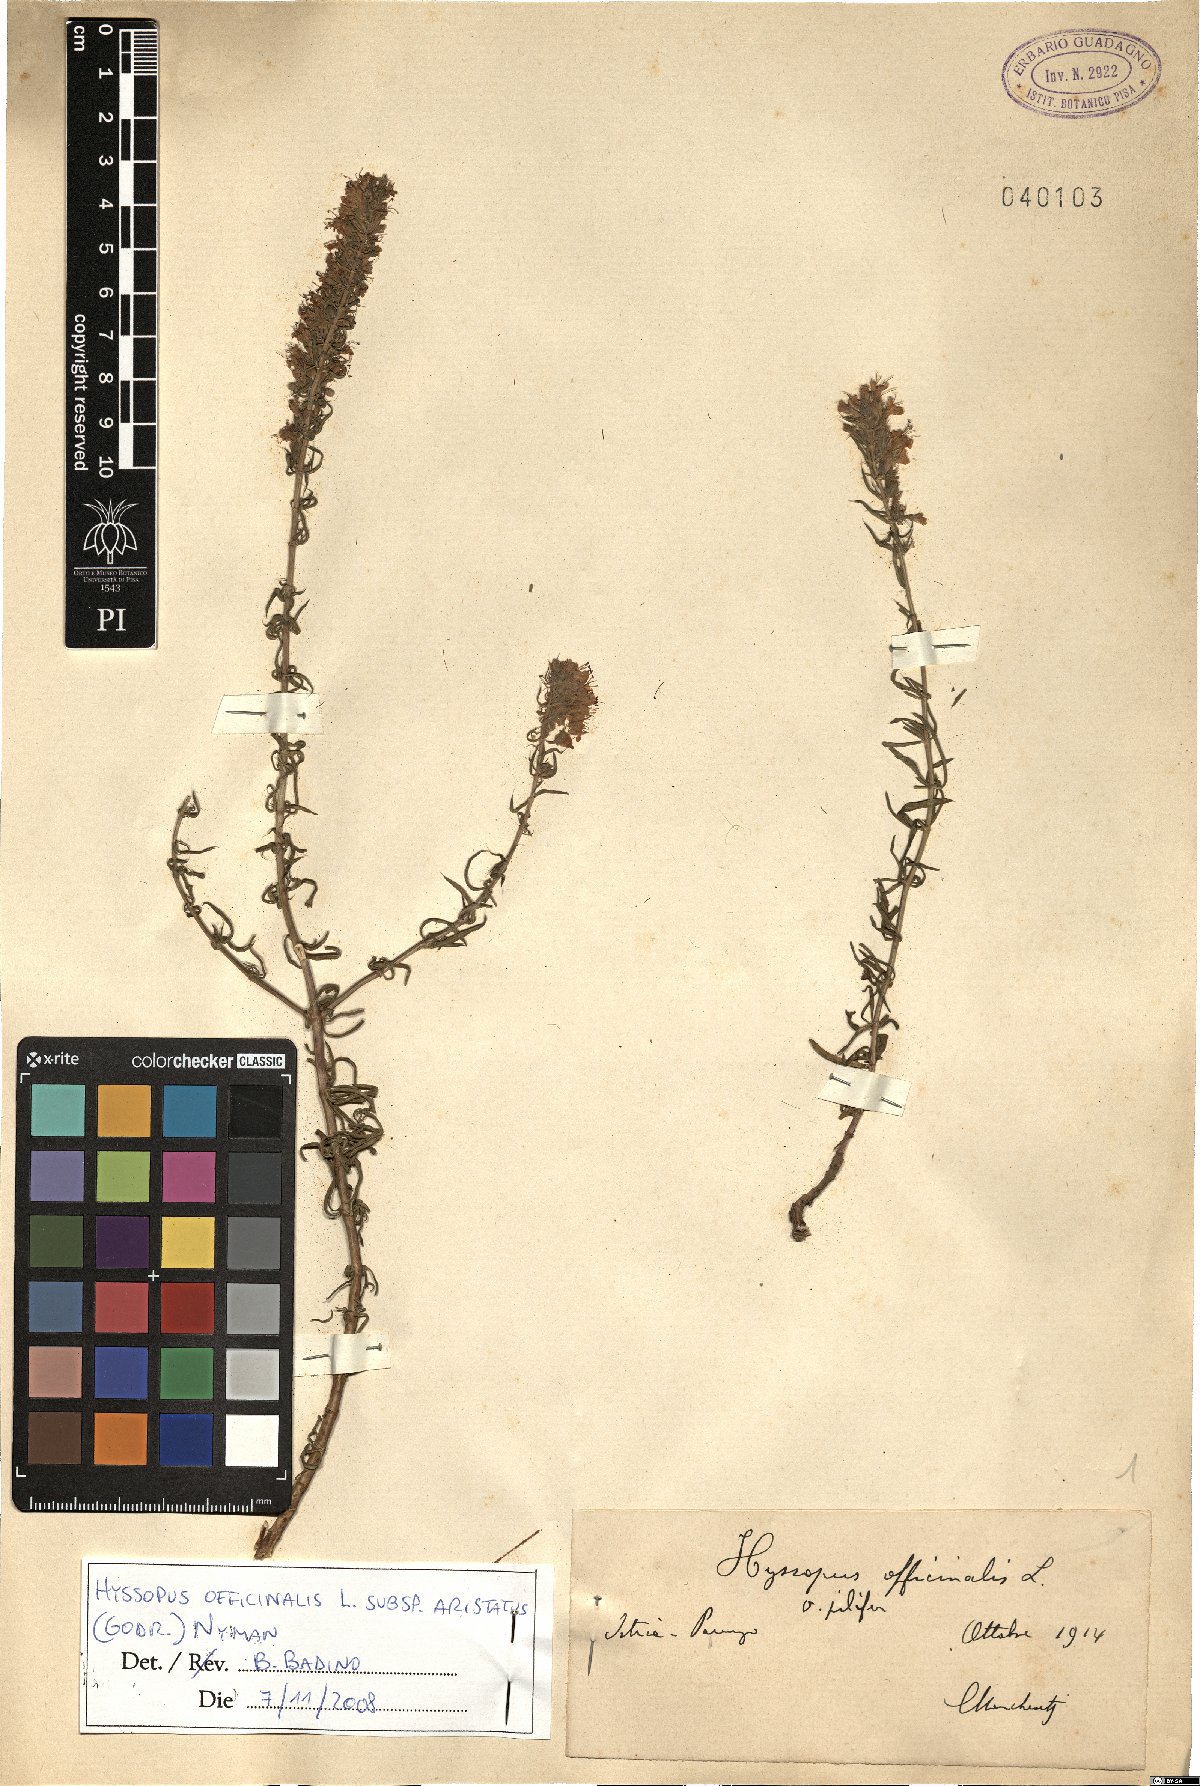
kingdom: Plantae
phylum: Tracheophyta
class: Magnoliopsida
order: Lamiales
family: Lamiaceae
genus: Hyssopus
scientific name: Hyssopus officinalis
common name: Hyssop
